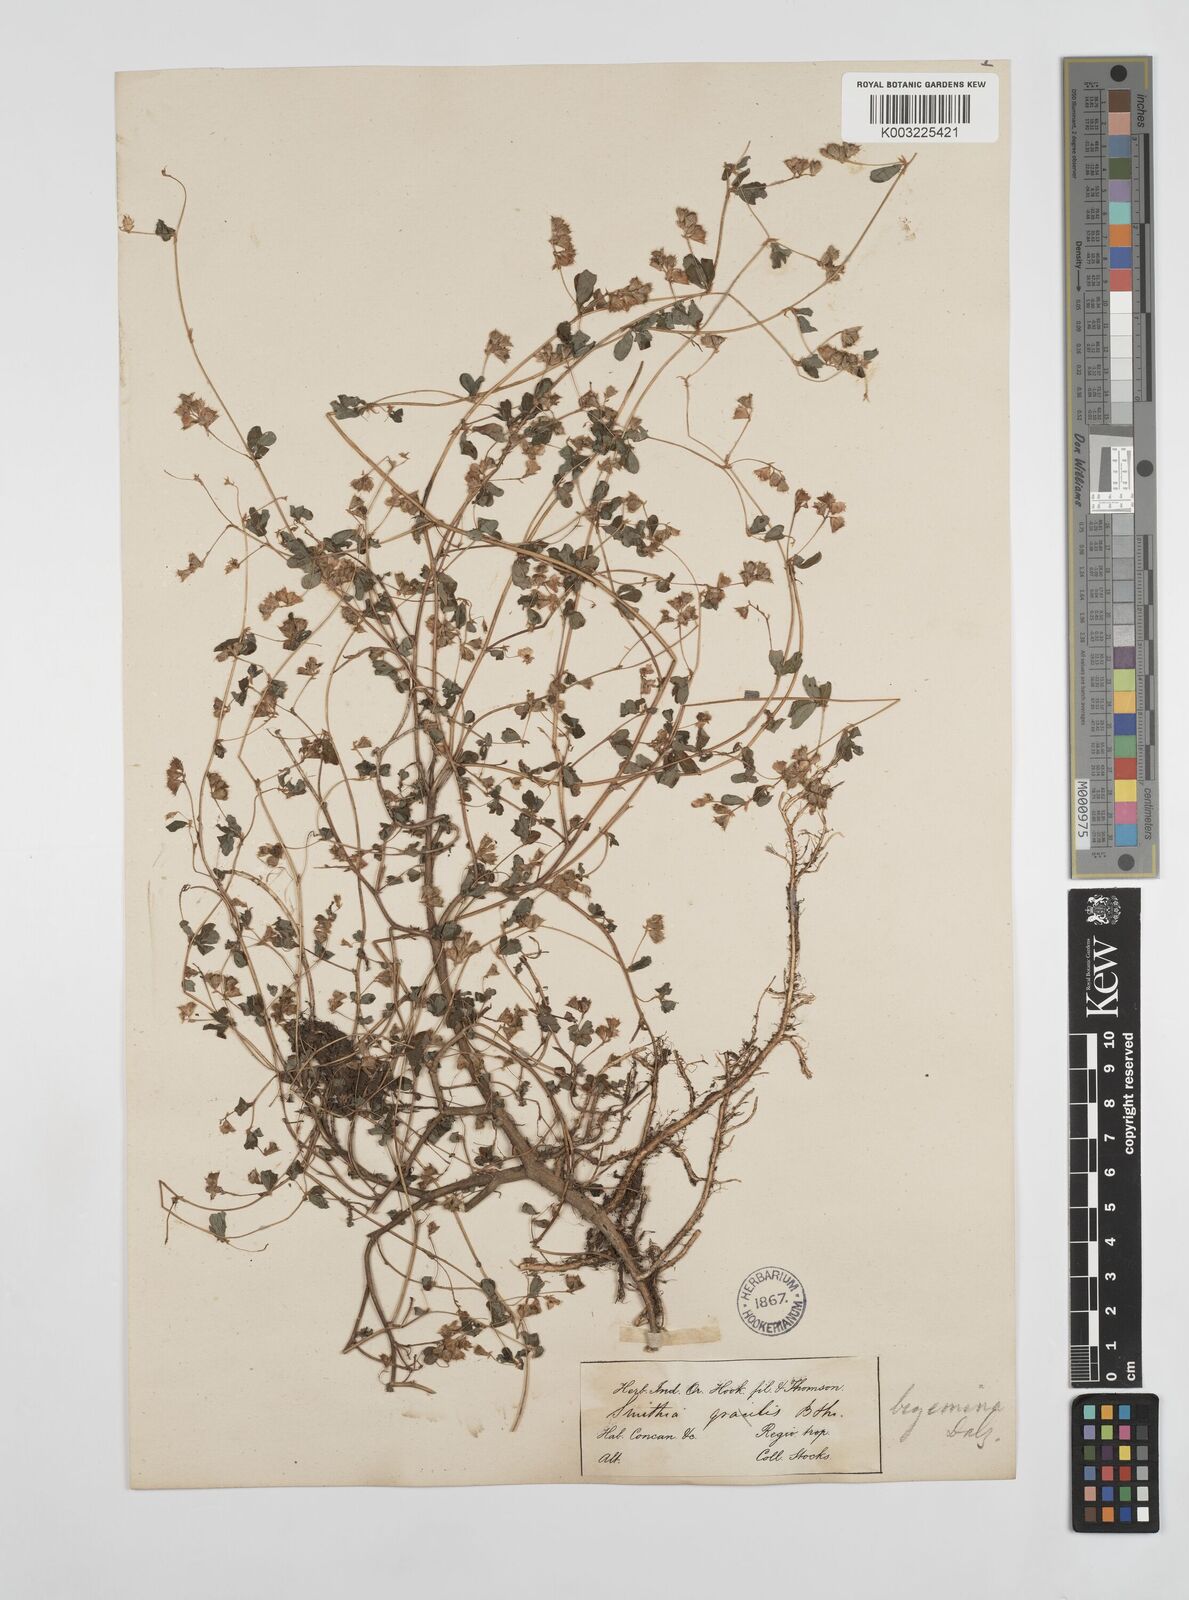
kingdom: Plantae
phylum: Tracheophyta
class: Magnoliopsida
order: Fabales
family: Fabaceae
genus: Smithia
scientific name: Smithia bigemina
